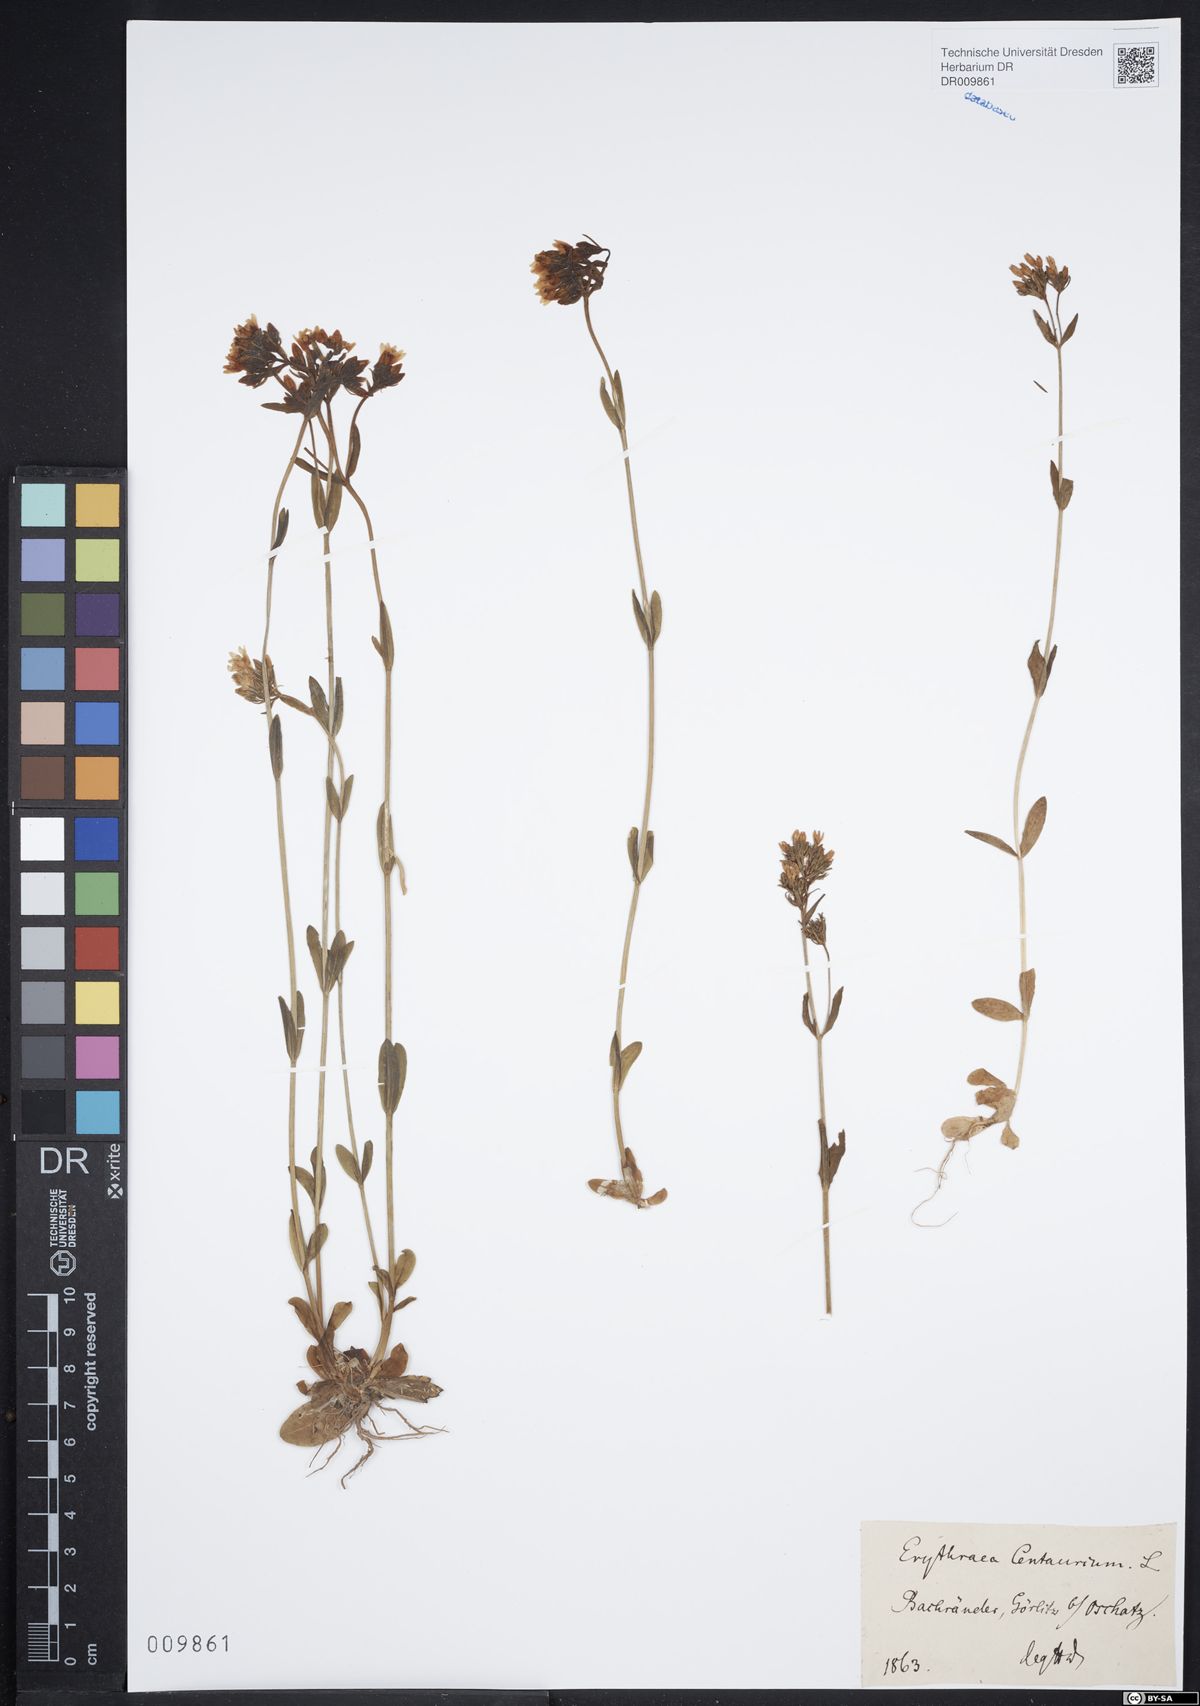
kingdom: Plantae
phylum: Tracheophyta
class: Magnoliopsida
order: Gentianales
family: Gentianaceae
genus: Centaurium
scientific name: Centaurium erythraea
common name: Common centaury
